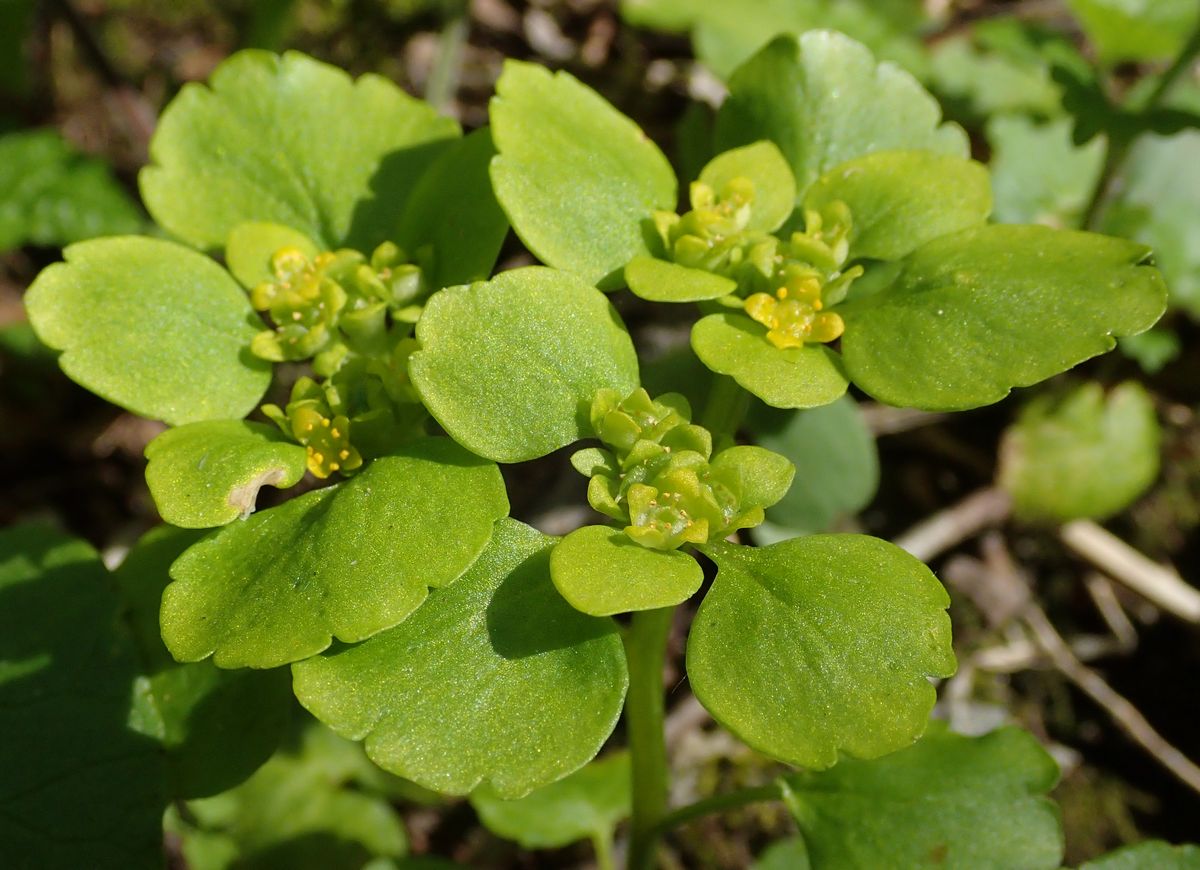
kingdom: Plantae
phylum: Tracheophyta
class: Magnoliopsida
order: Saxifragales
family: Saxifragaceae
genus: Chrysosplenium
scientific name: Chrysosplenium alternifolium
